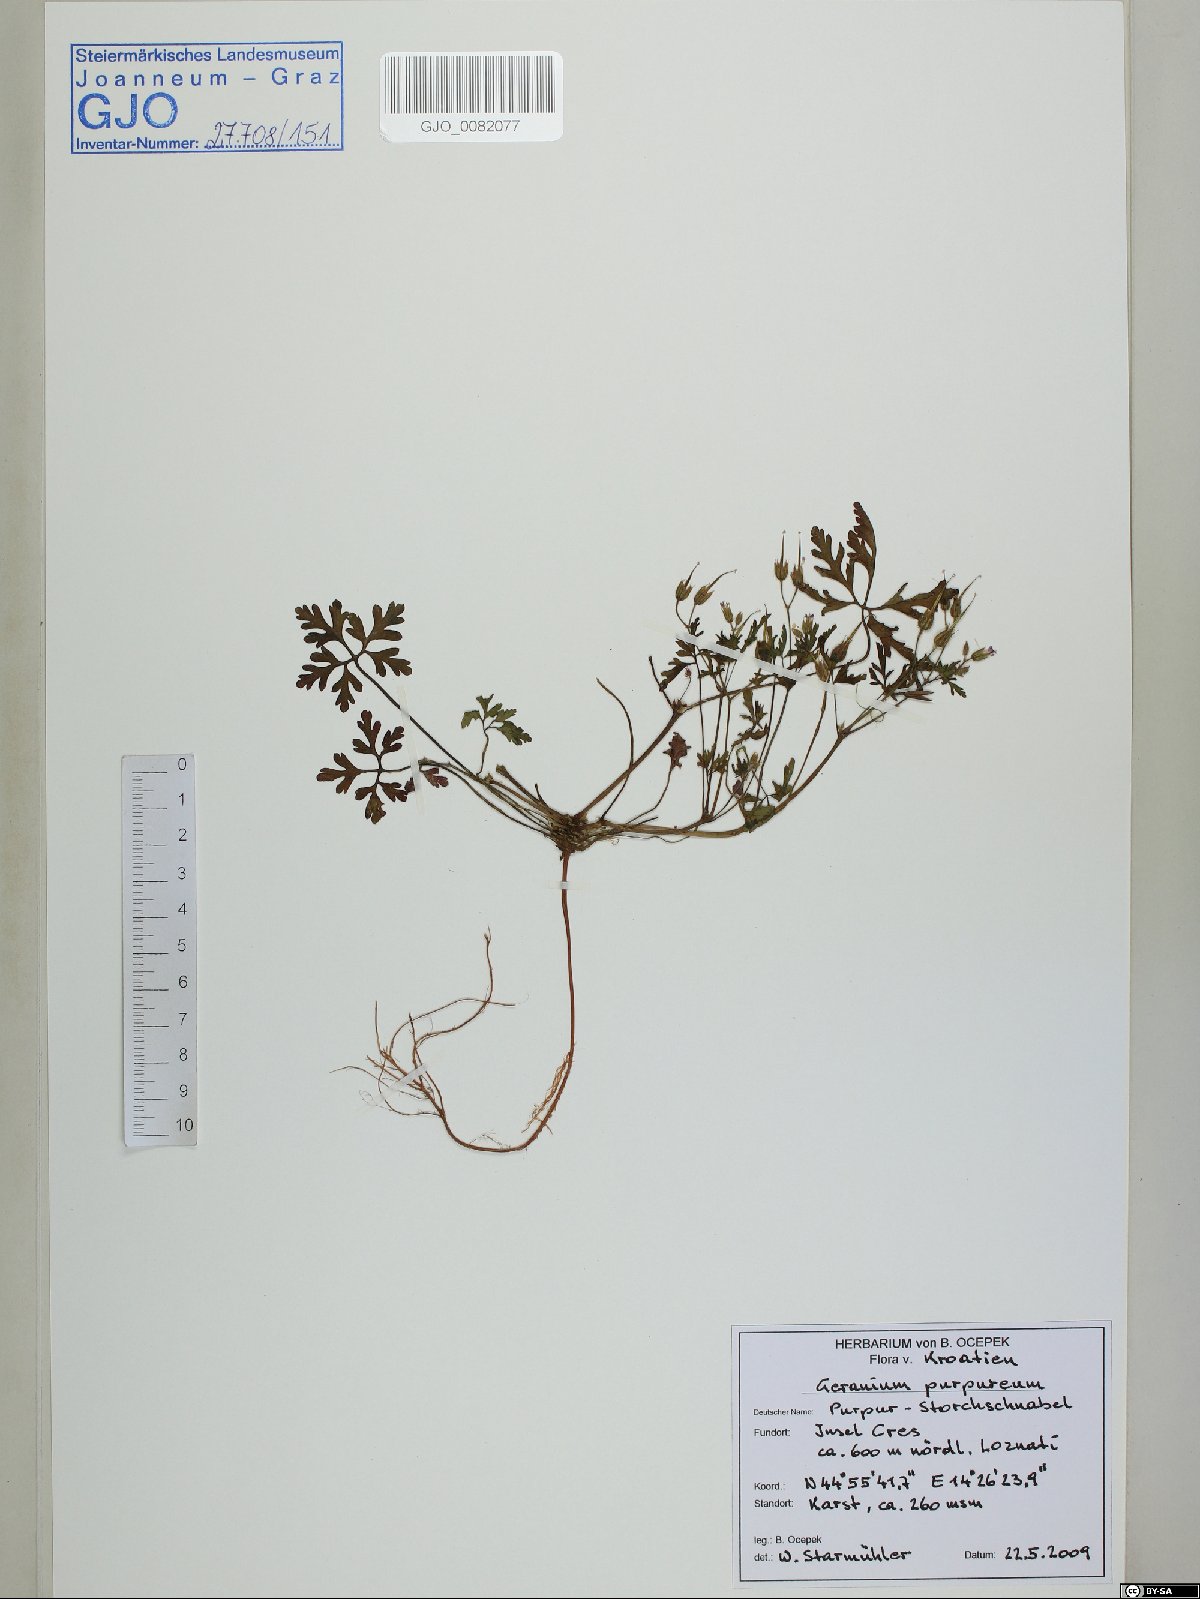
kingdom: Plantae
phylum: Tracheophyta
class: Magnoliopsida
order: Geraniales
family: Geraniaceae
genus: Geranium
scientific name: Geranium purpureum
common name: Little-robin
